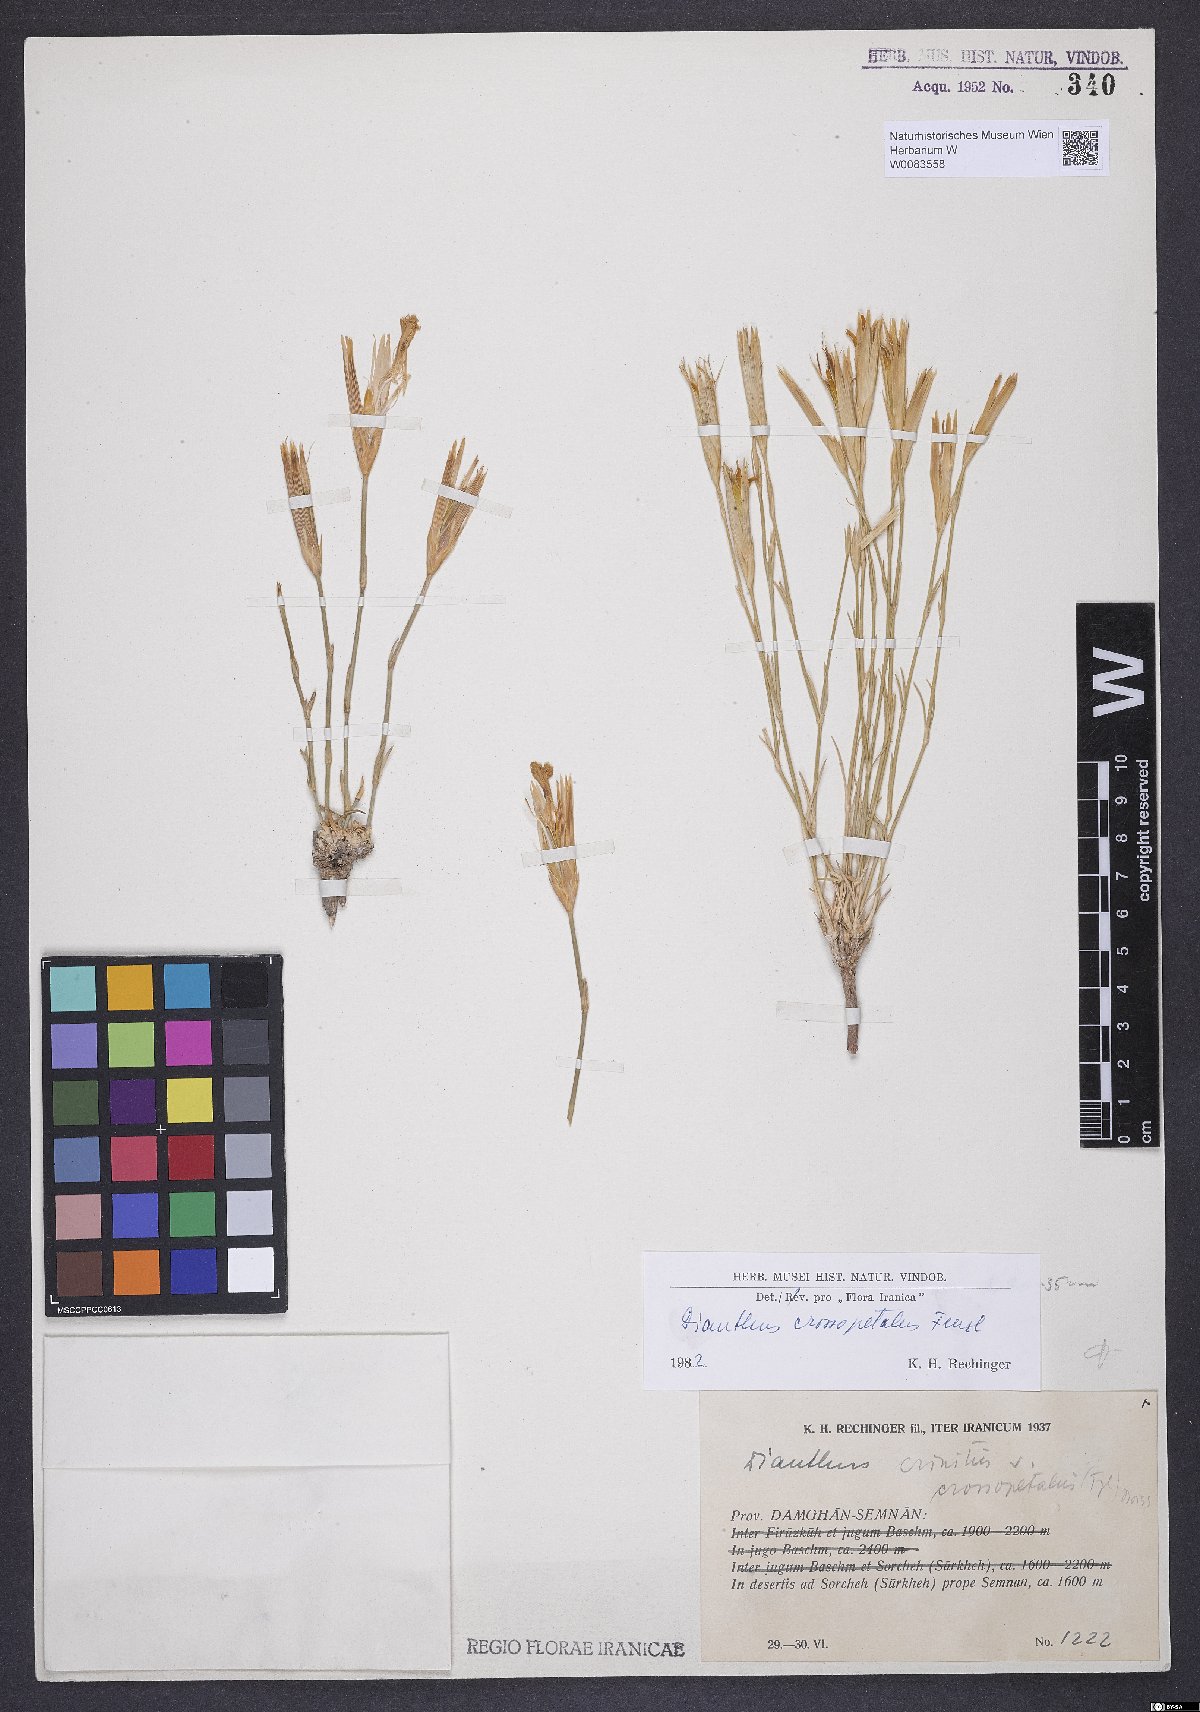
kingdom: Plantae
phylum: Tracheophyta
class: Magnoliopsida
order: Caryophyllales
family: Caryophyllaceae
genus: Dianthus
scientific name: Dianthus crossopetalus
